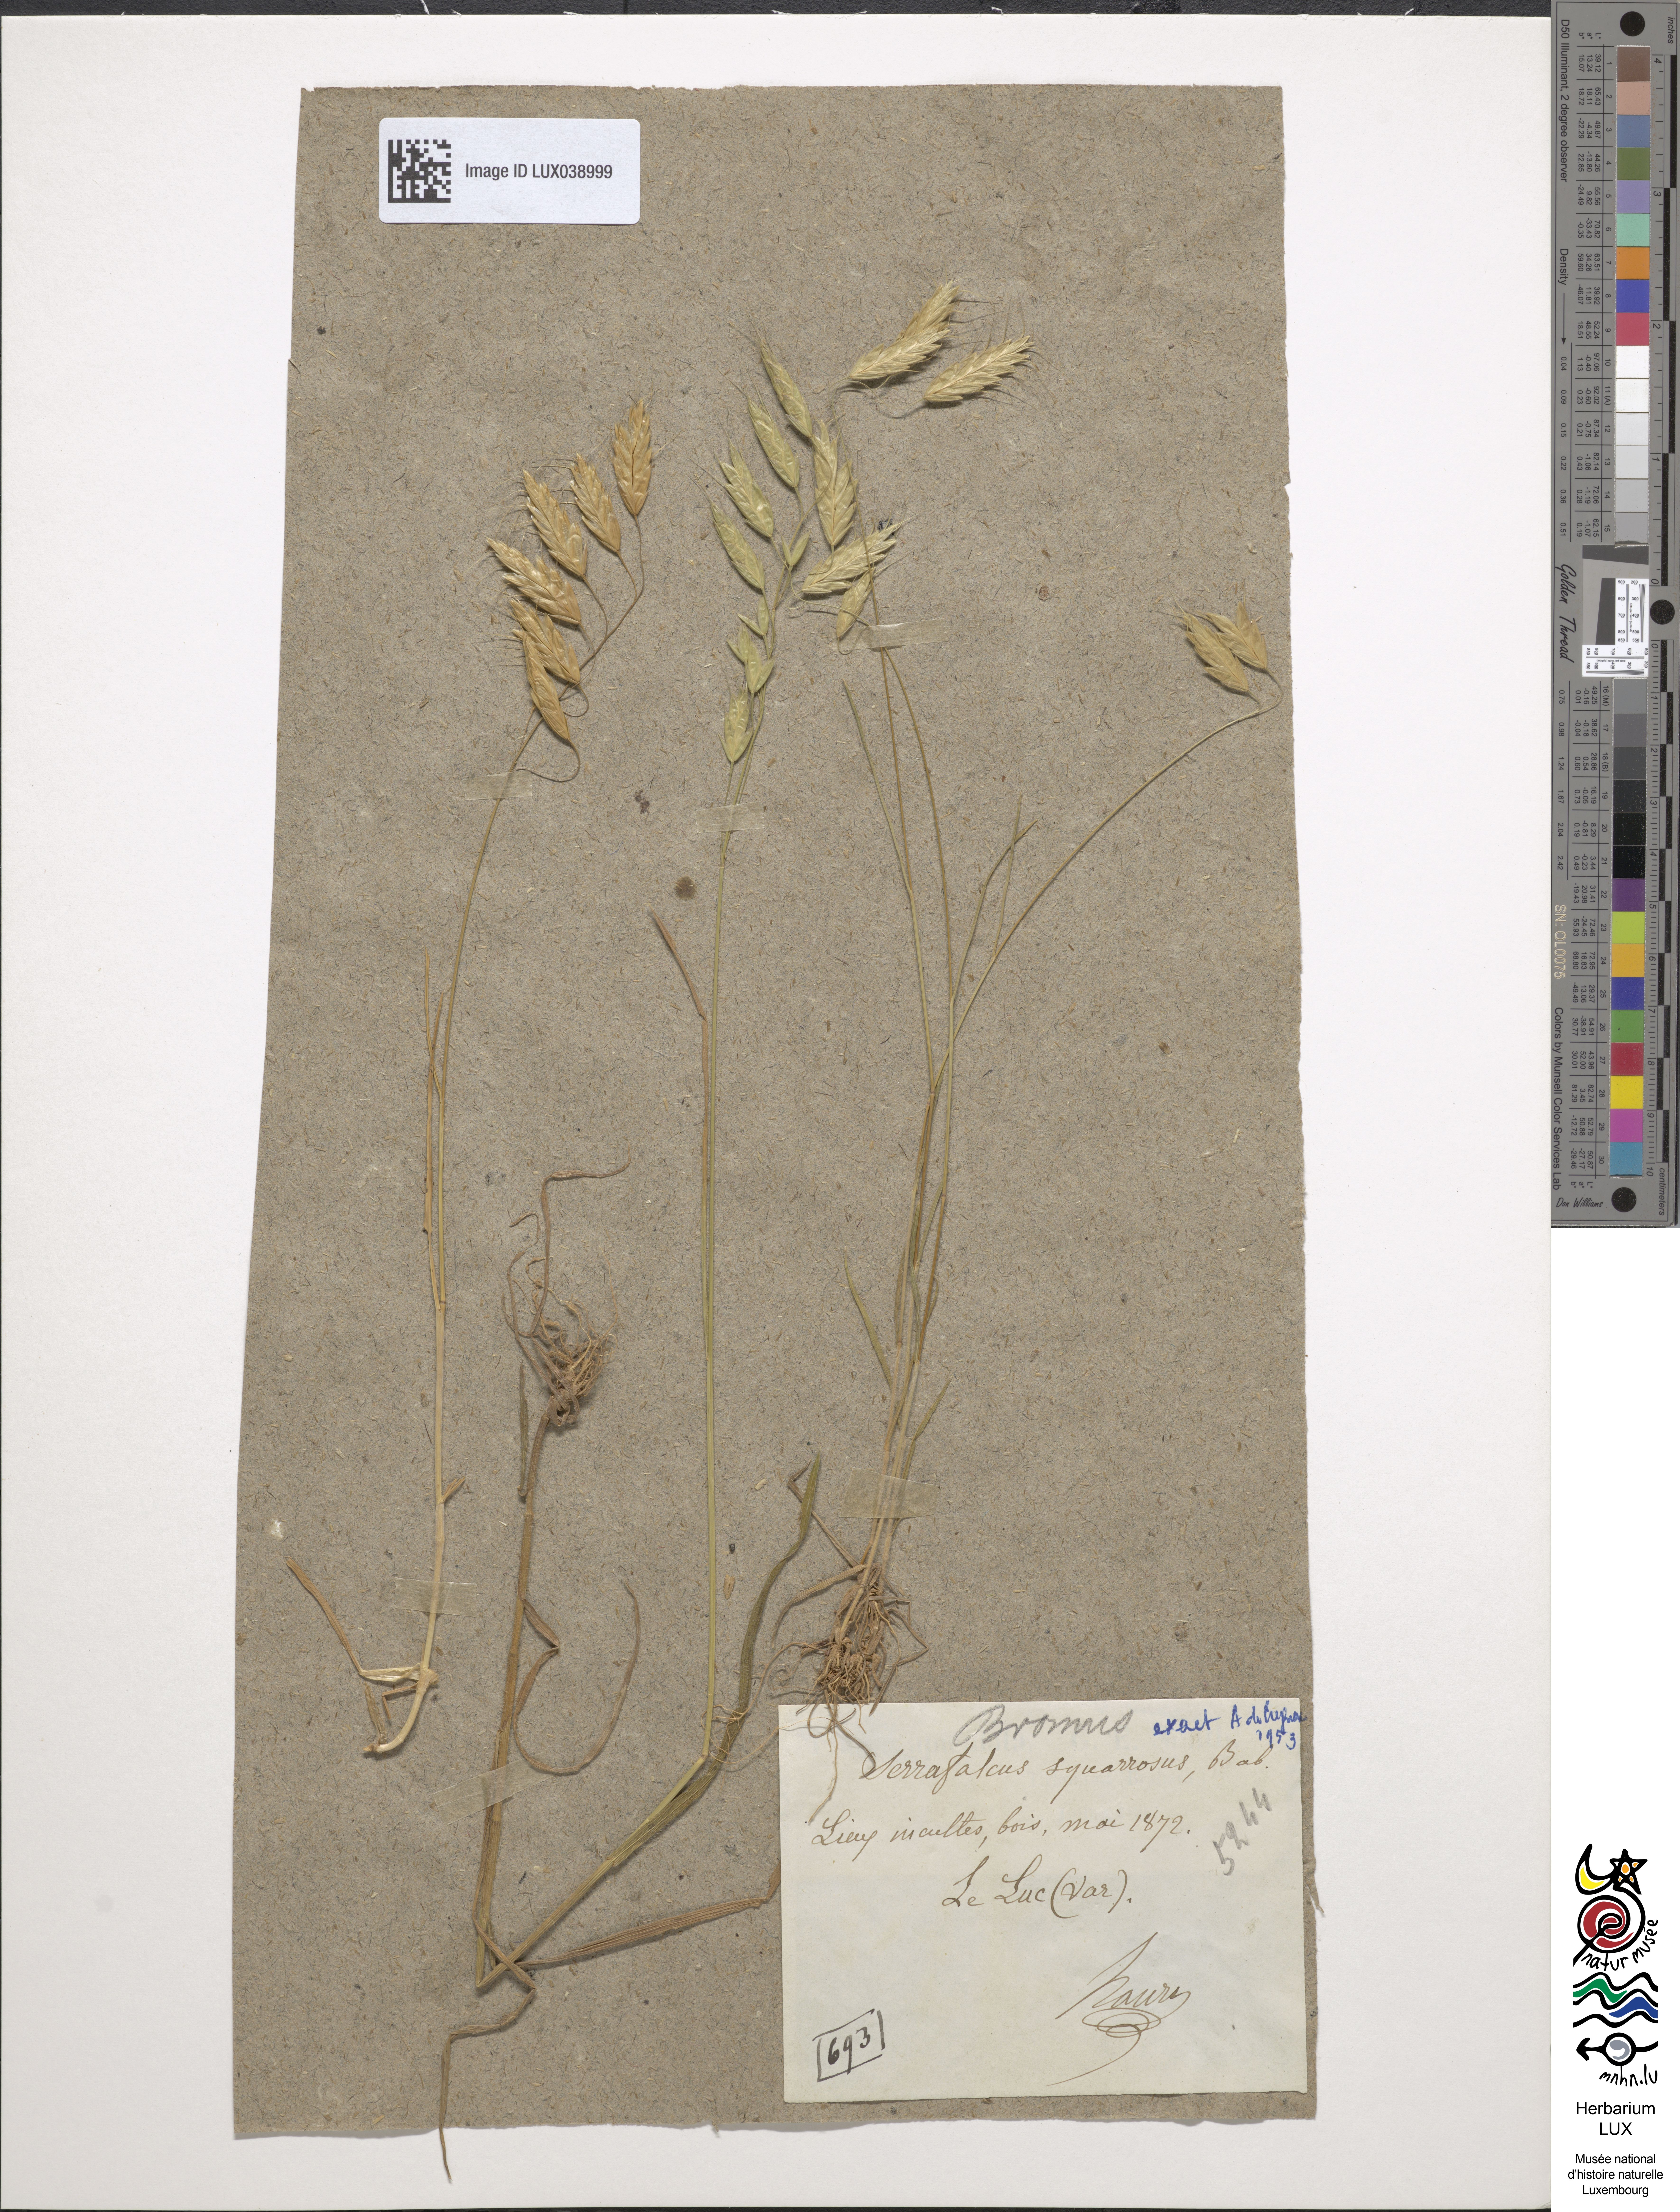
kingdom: Plantae
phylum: Tracheophyta
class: Liliopsida
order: Poales
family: Poaceae
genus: Bromus
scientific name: Bromus squarrosus
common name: Corn brome
